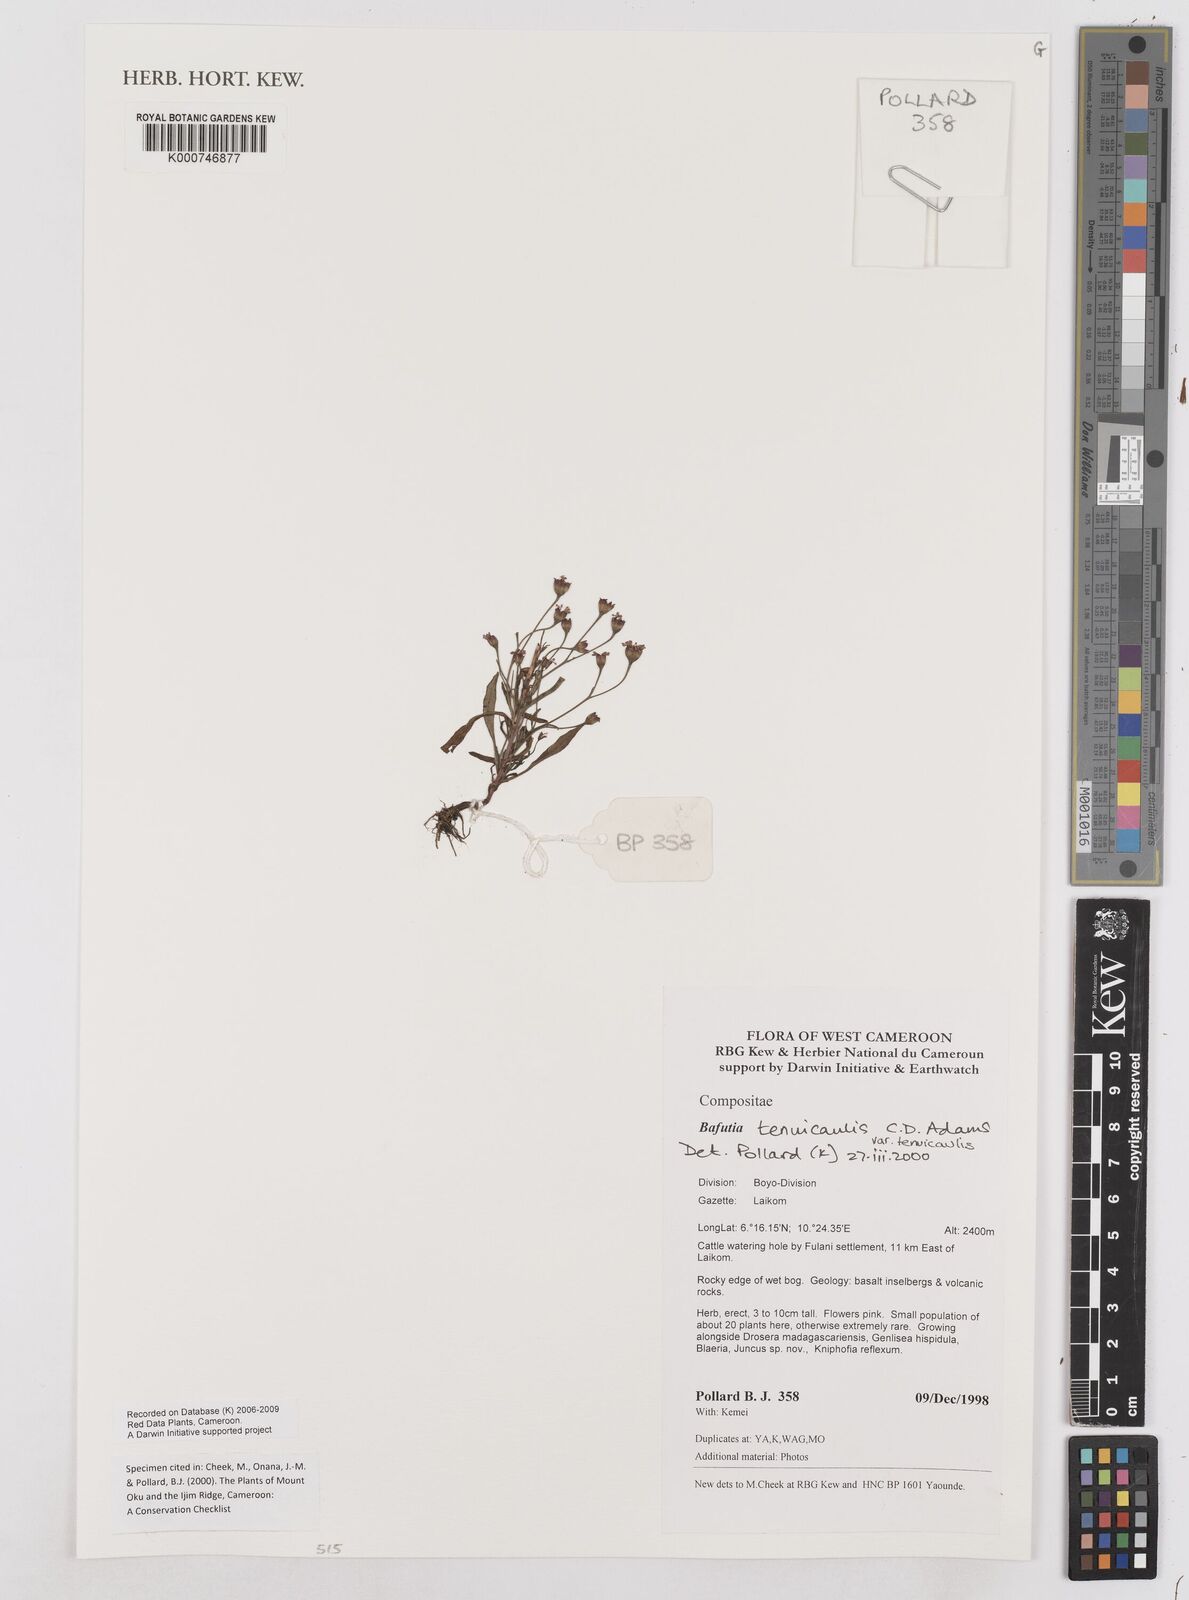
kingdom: Plantae
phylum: Tracheophyta
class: Magnoliopsida
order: Asterales
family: Asteraceae
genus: Emilia
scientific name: Emilia tenuicaulis
